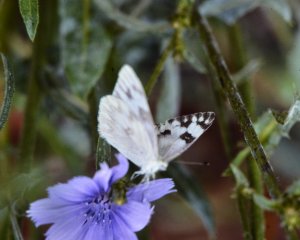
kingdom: Animalia
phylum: Arthropoda
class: Insecta
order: Lepidoptera
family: Pieridae
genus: Pontia
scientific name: Pontia protodice
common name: Checkered White
